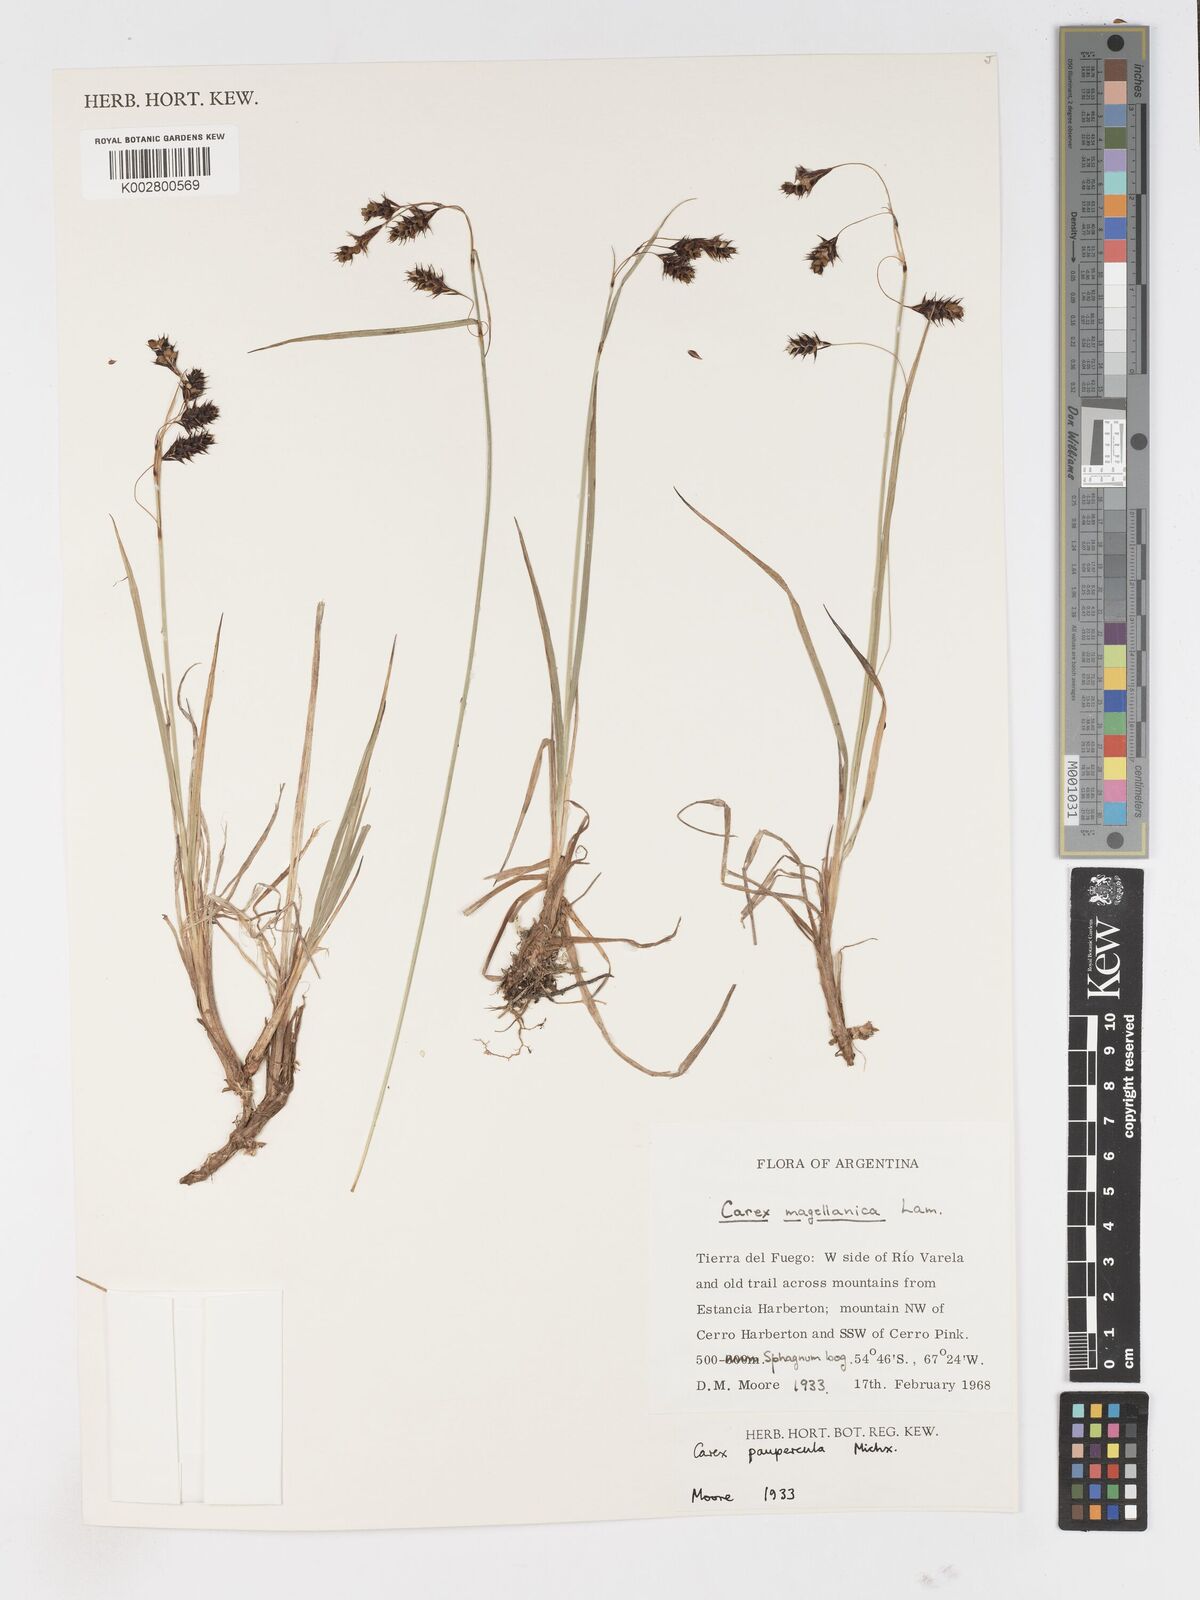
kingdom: Plantae
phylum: Tracheophyta
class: Liliopsida
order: Poales
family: Cyperaceae
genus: Carex
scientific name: Carex magellanica
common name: Bog sedge
